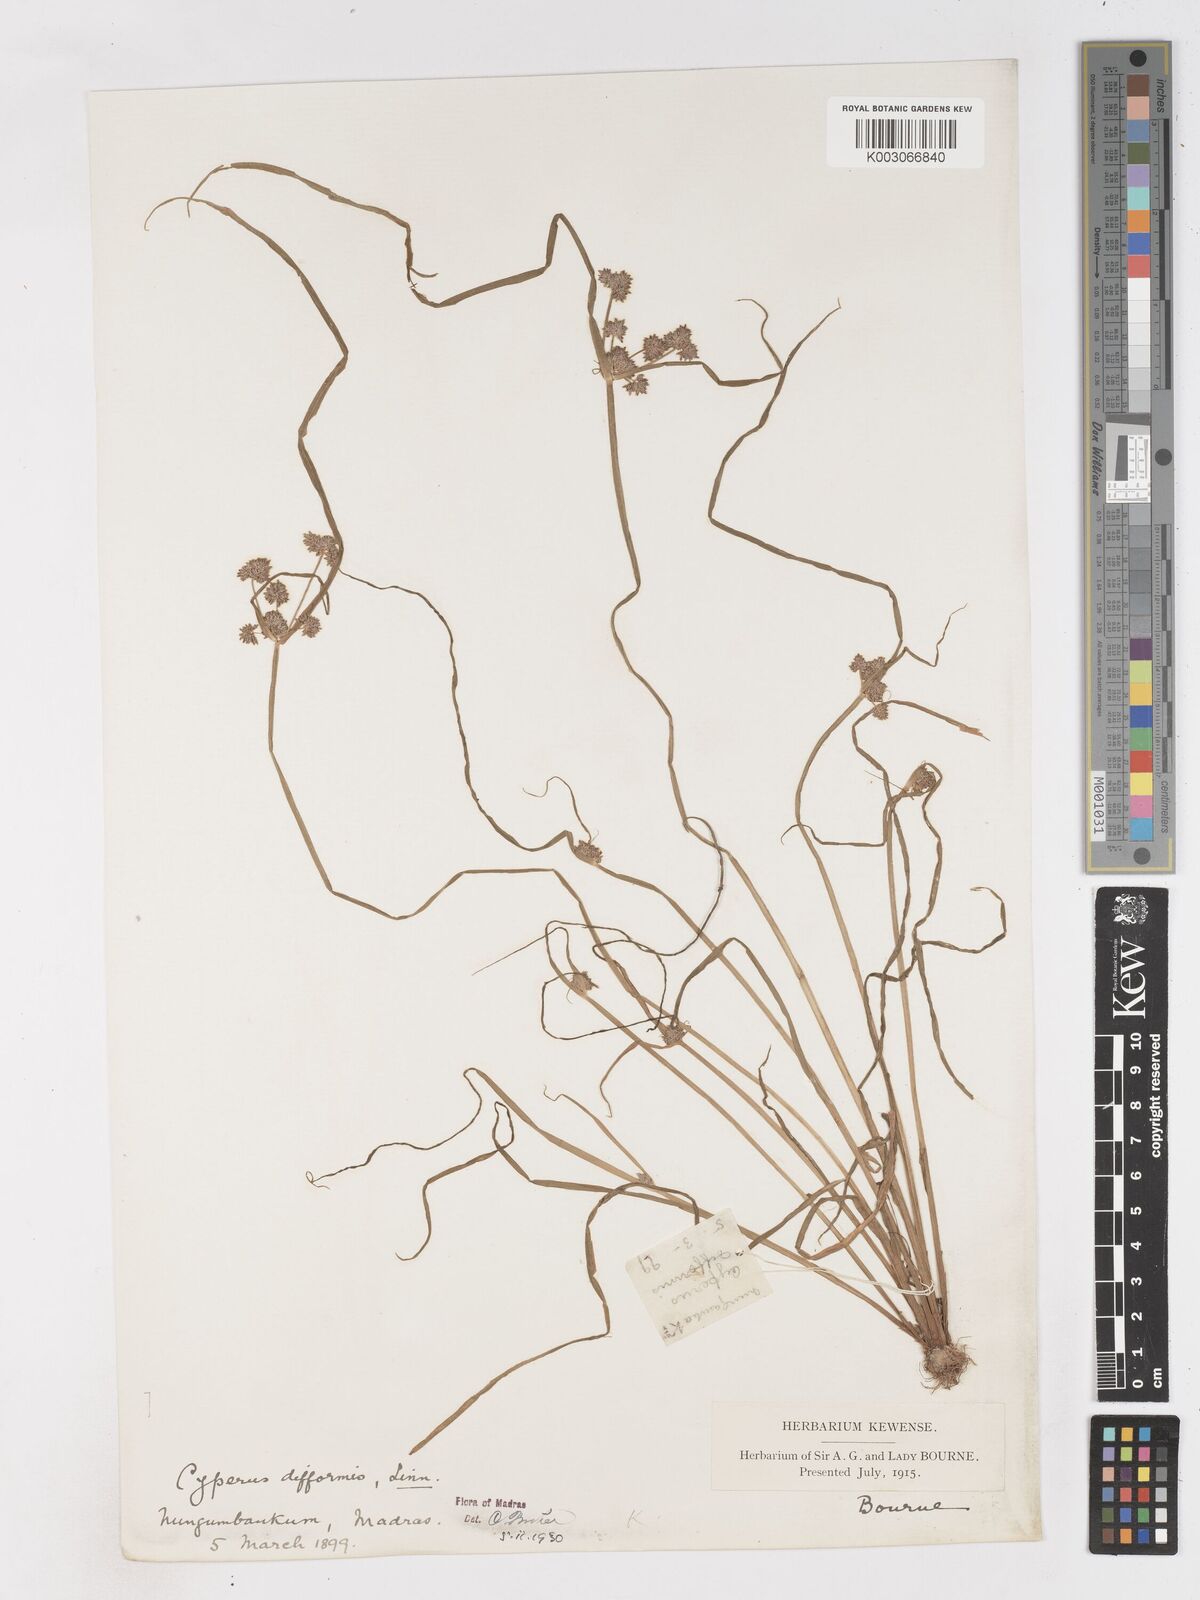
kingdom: Plantae
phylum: Tracheophyta
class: Liliopsida
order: Poales
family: Cyperaceae
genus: Cyperus
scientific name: Cyperus difformis
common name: Variable flatsedge
